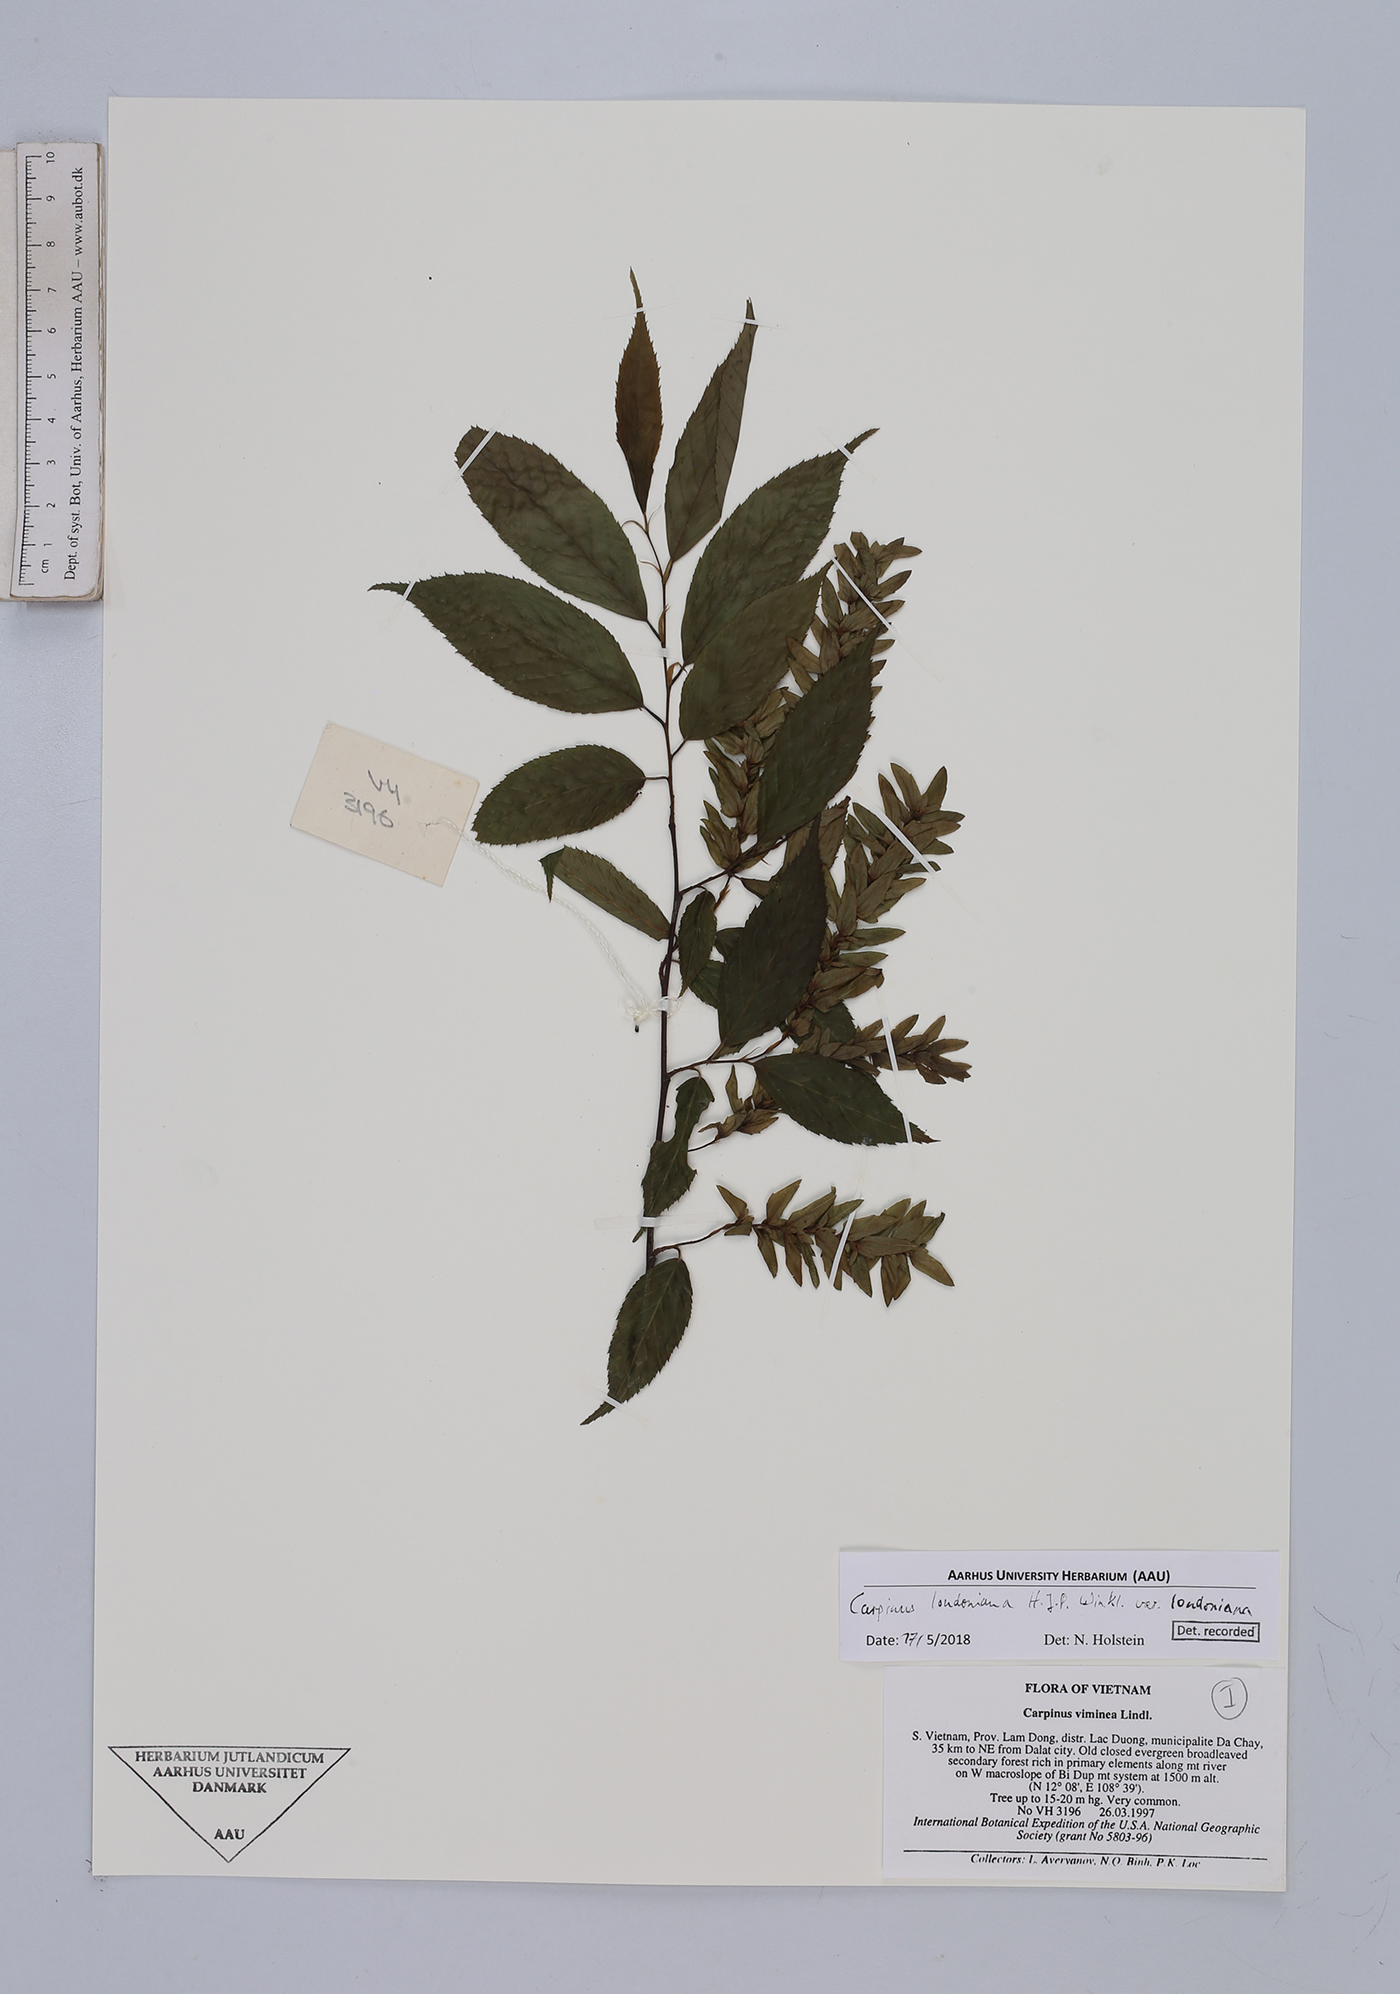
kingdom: Plantae
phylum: Tracheophyta
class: Magnoliopsida
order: Fagales
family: Betulaceae
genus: Carpinus
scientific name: Carpinus londoniana
